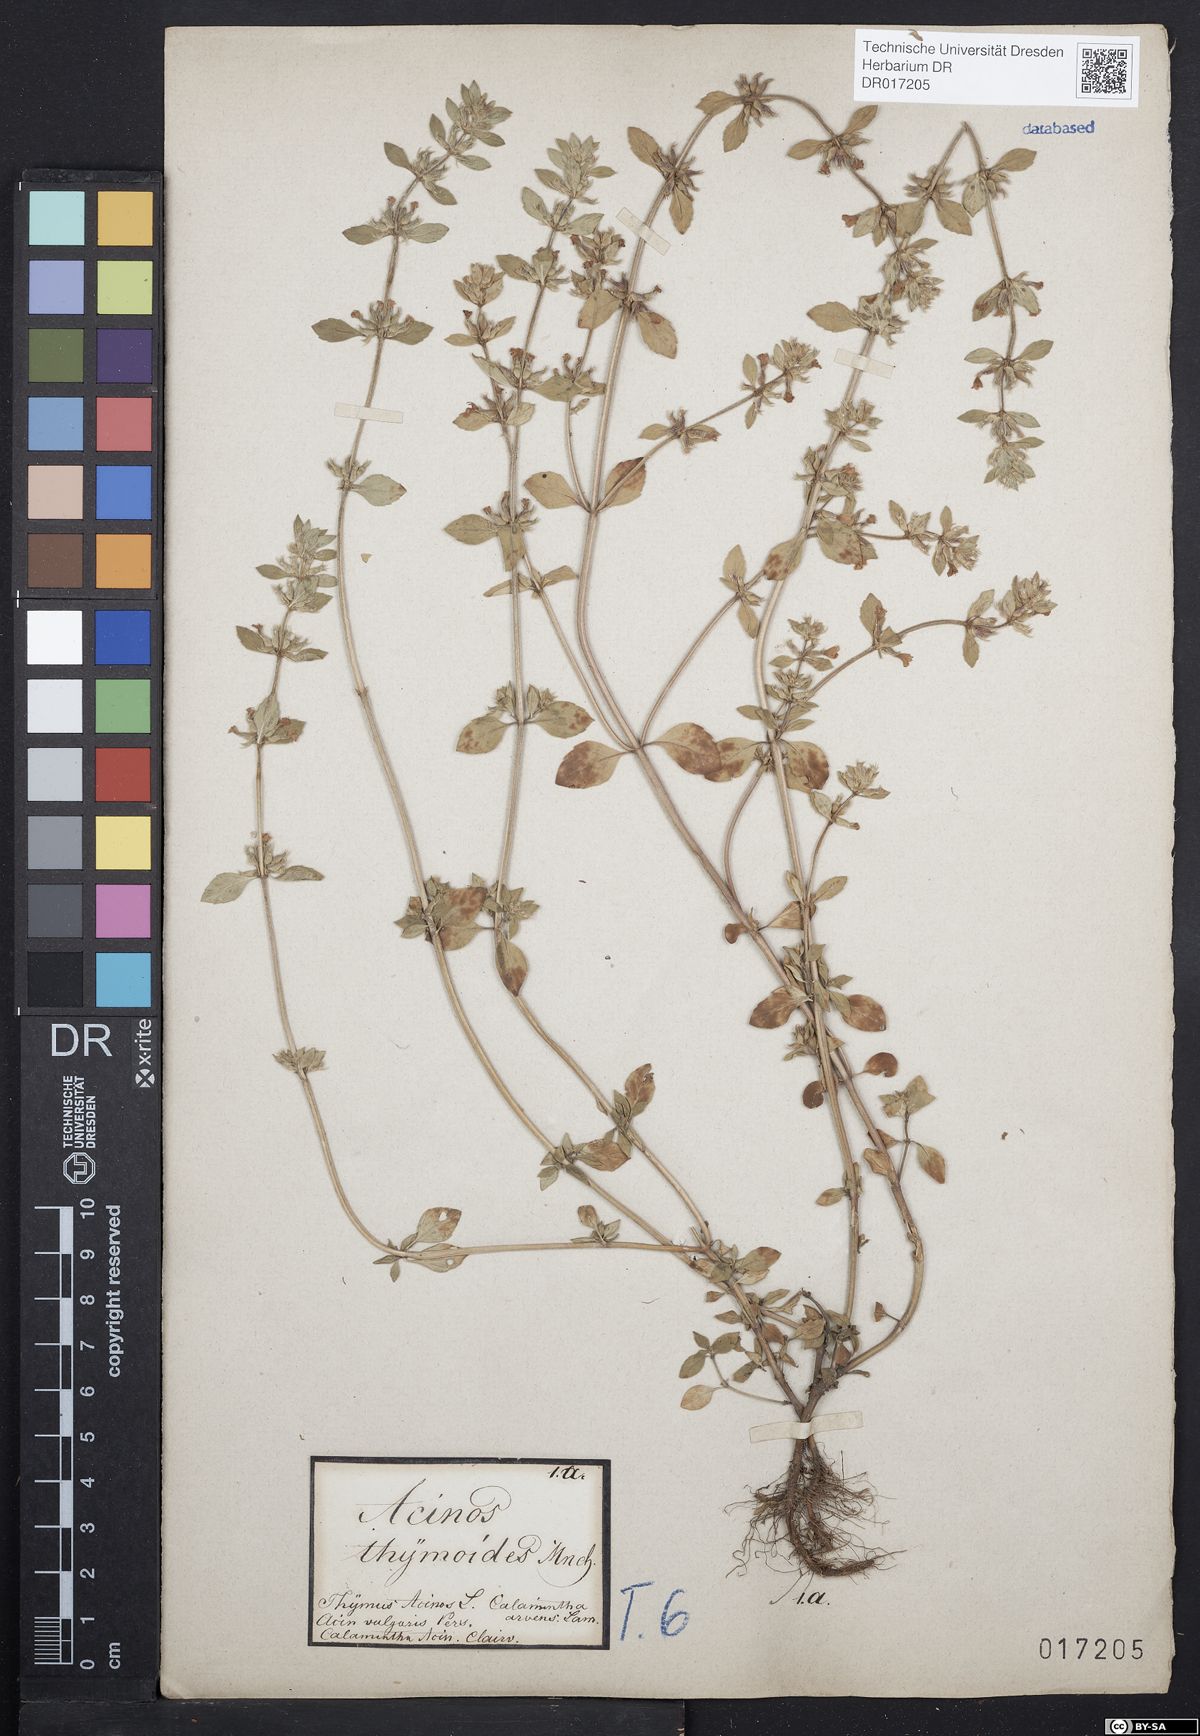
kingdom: Plantae
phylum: Tracheophyta
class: Magnoliopsida
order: Lamiales
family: Lamiaceae
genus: Clinopodium
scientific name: Clinopodium acinos
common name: Basil thyme
